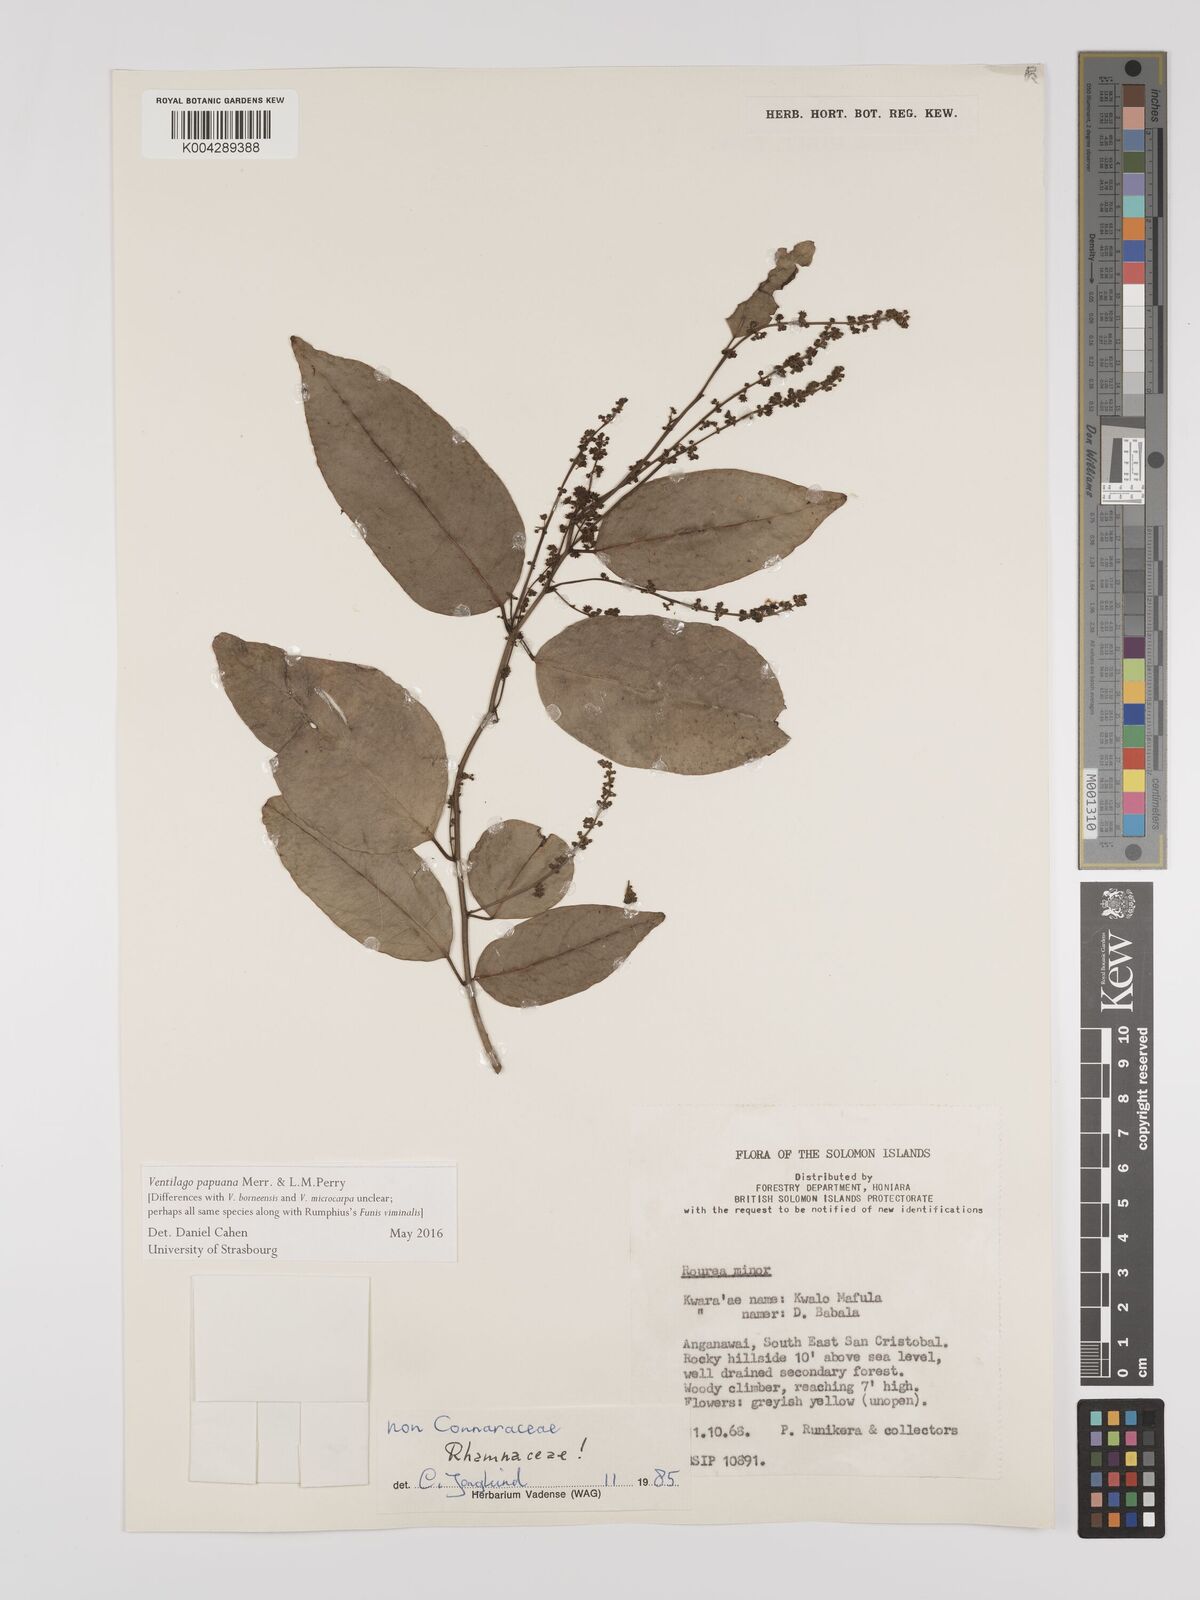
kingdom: Plantae
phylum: Tracheophyta
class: Magnoliopsida
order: Rosales
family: Rhamnaceae
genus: Ventilago
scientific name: Ventilago papuana
